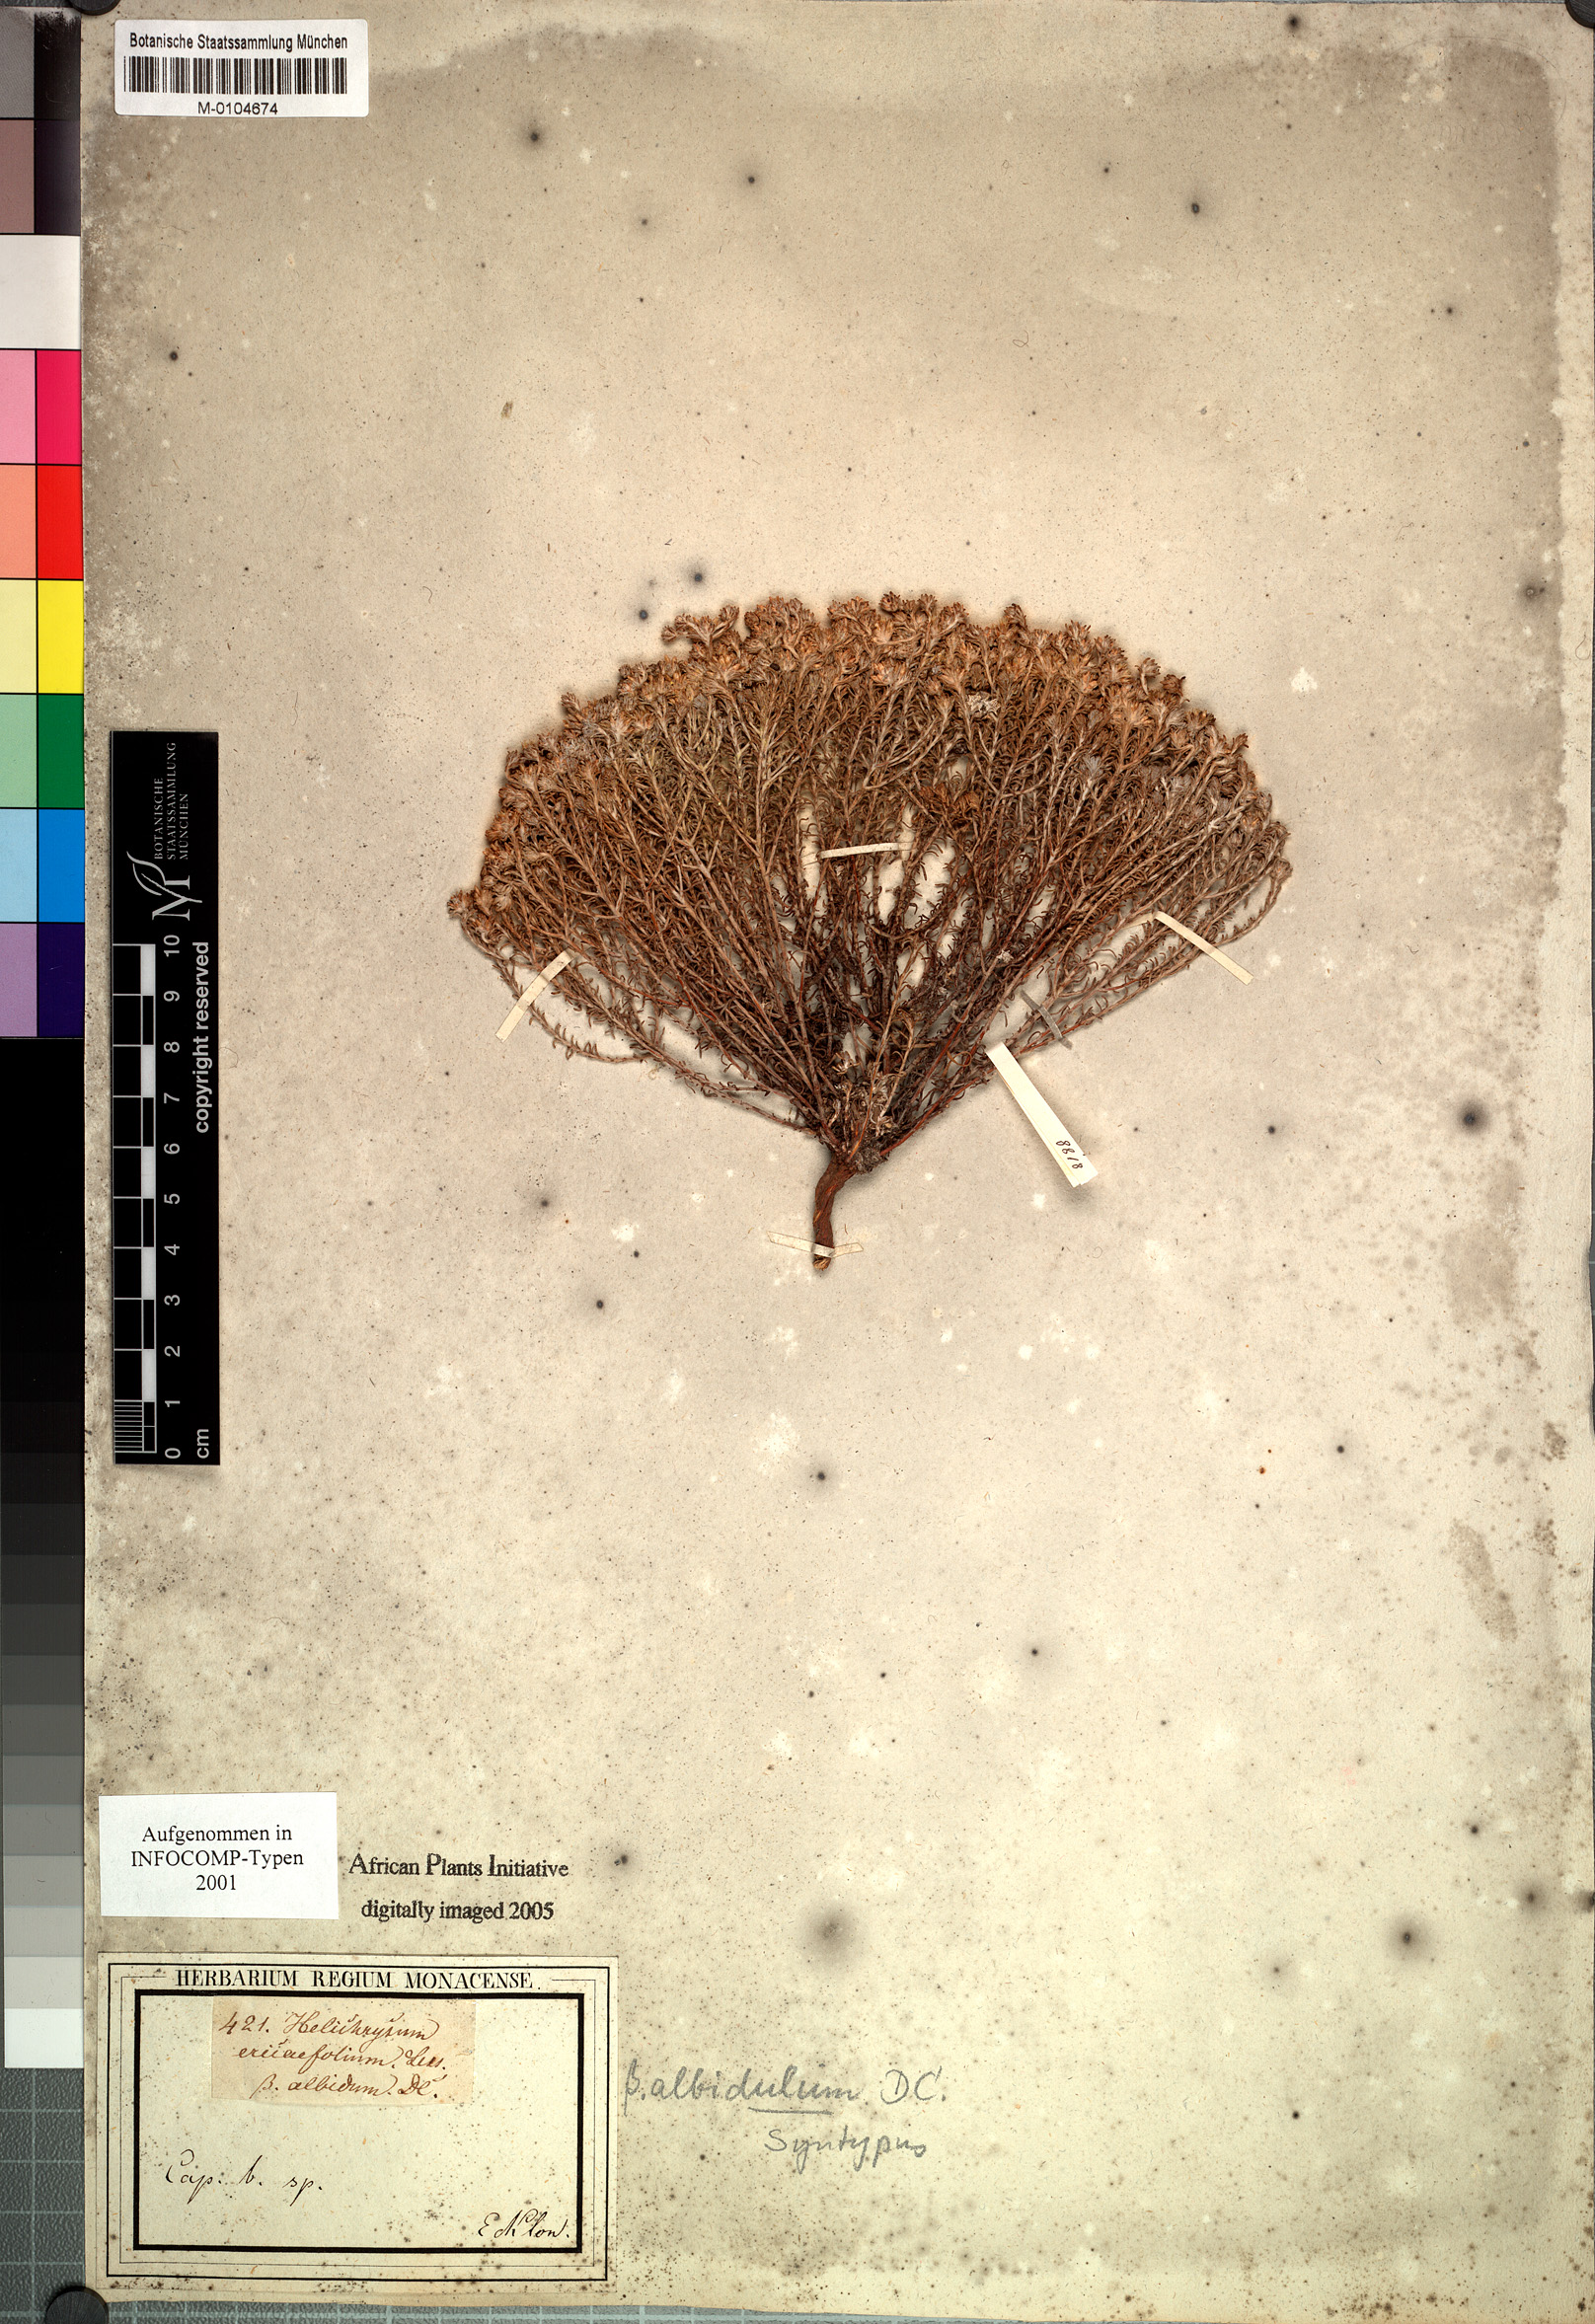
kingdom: Plantae
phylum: Tracheophyta
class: Magnoliopsida
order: Asterales
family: Asteraceae
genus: Helichrysum
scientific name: Helichrysum asperum
